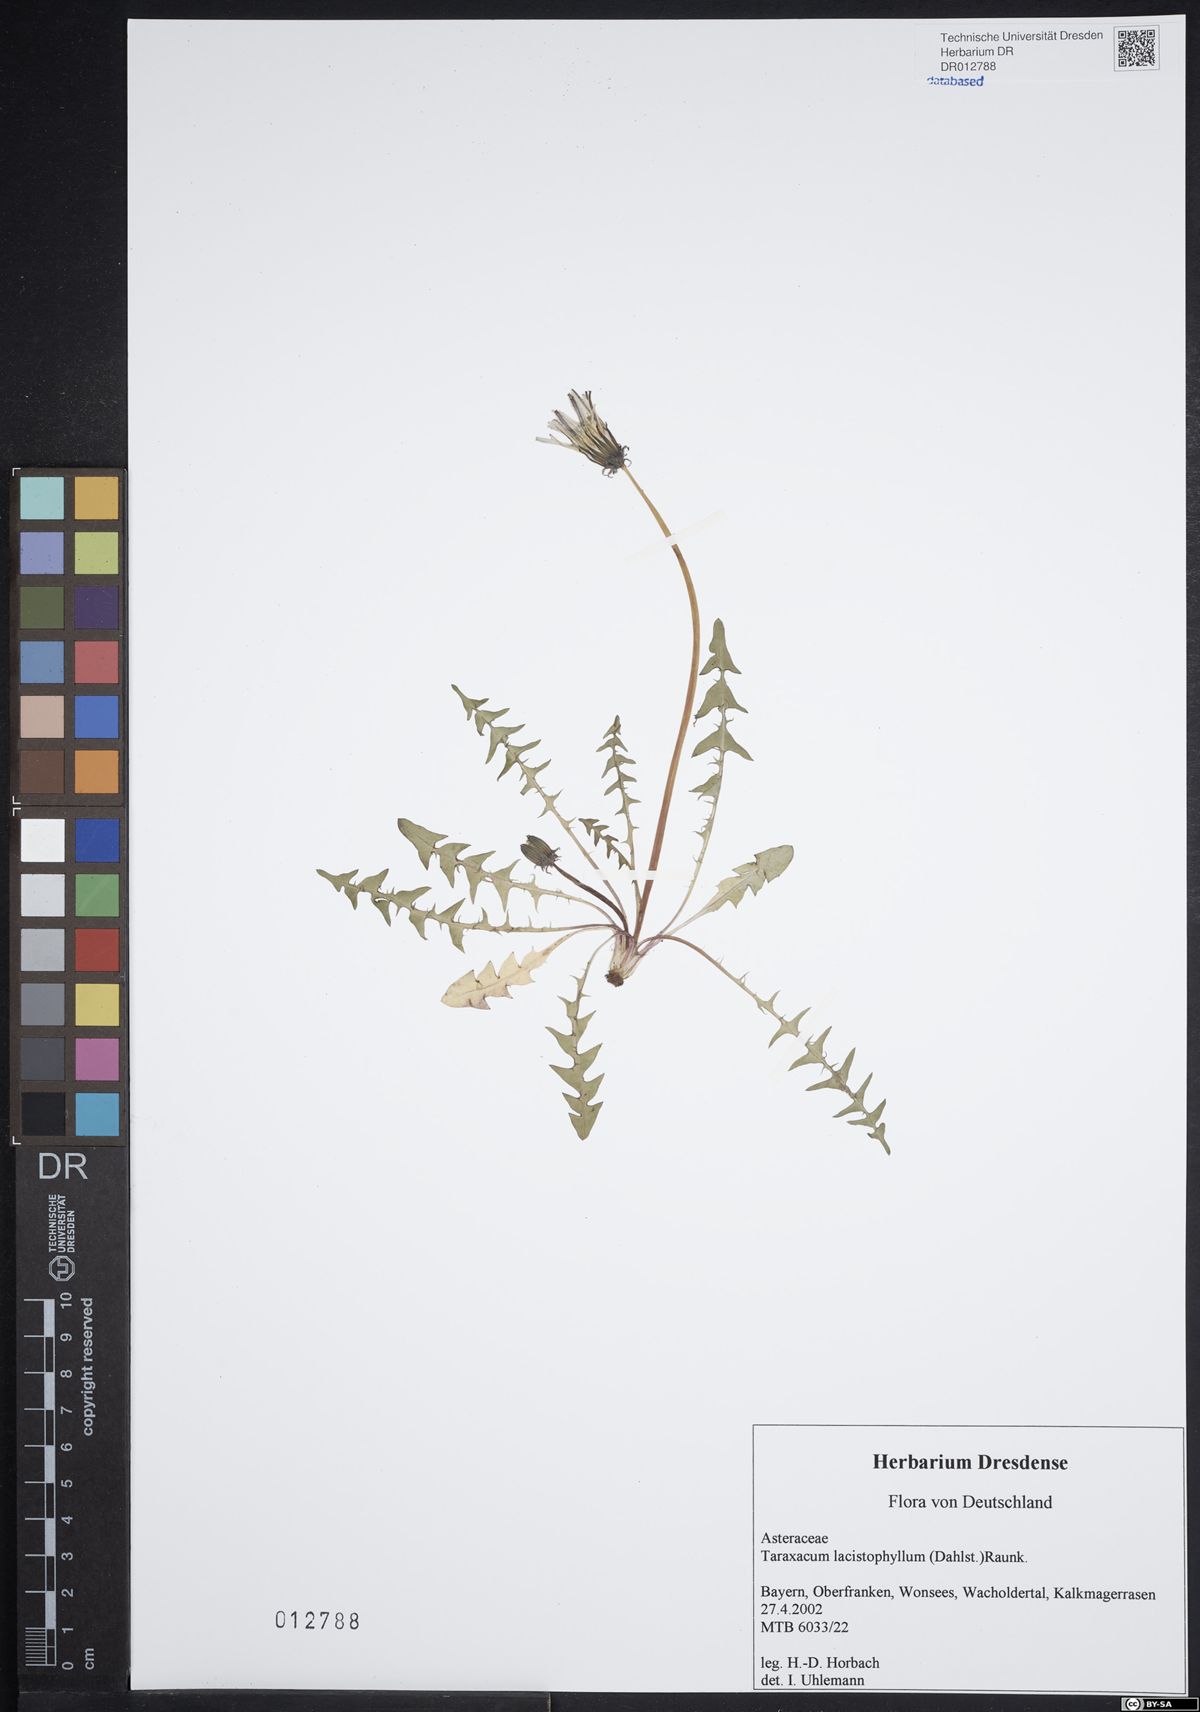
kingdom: Plantae
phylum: Tracheophyta
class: Magnoliopsida
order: Asterales
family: Asteraceae
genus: Taraxacum
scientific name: Taraxacum lacistophyllum
